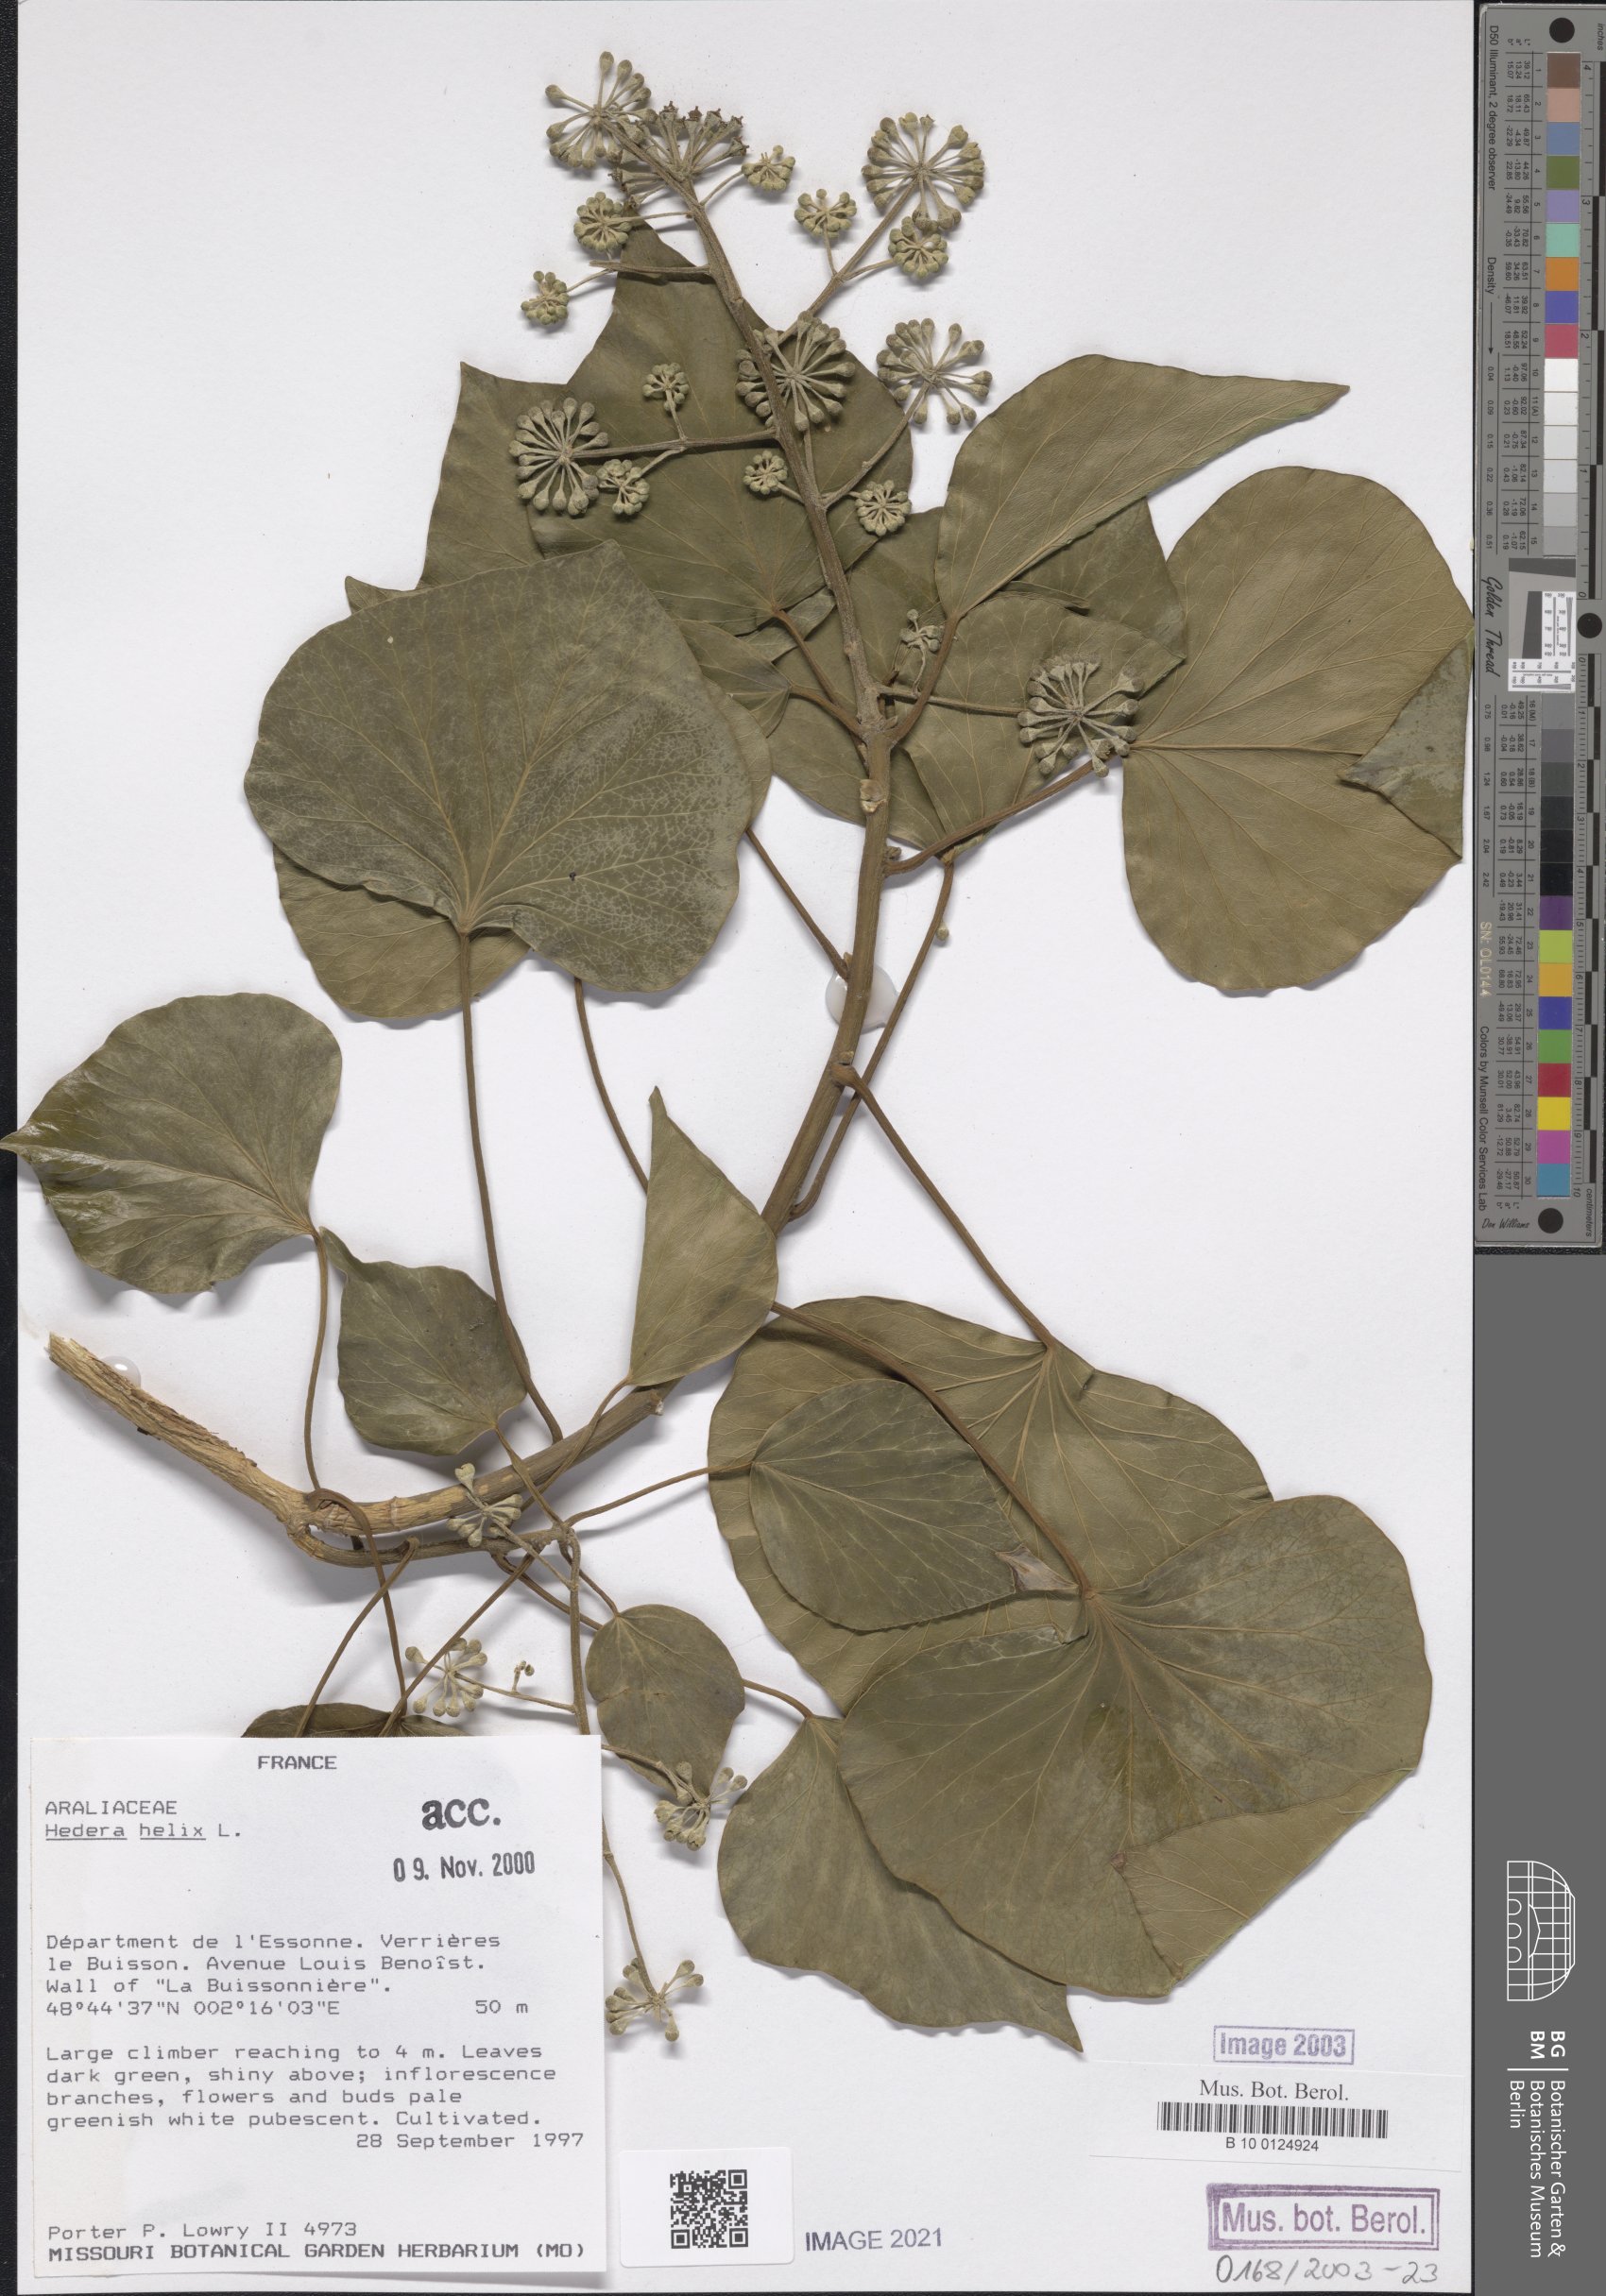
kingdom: Plantae
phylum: Tracheophyta
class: Magnoliopsida
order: Apiales
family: Araliaceae
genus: Hedera
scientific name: Hedera helix
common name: Ivy
